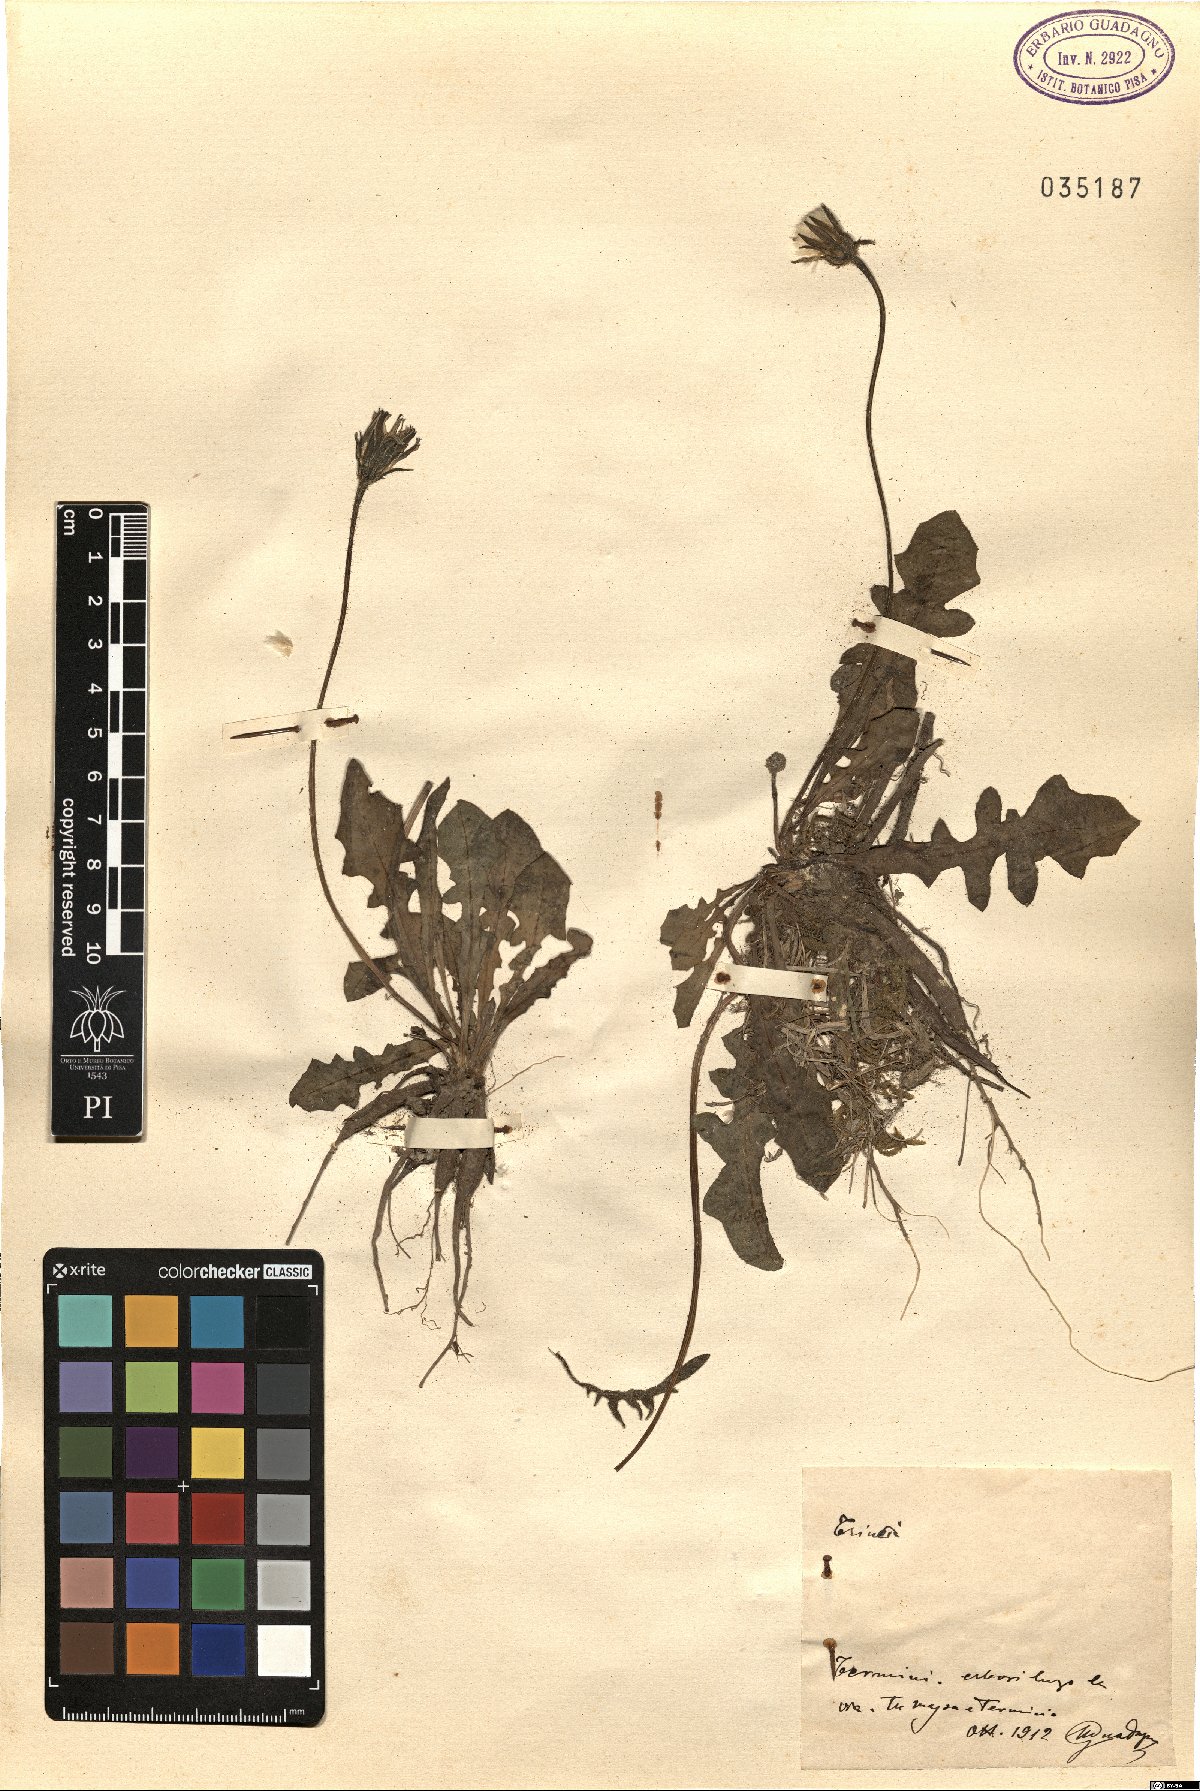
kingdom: Plantae
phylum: Tracheophyta
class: Magnoliopsida
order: Asterales
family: Asteraceae
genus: Thrincia
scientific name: Thrincia
